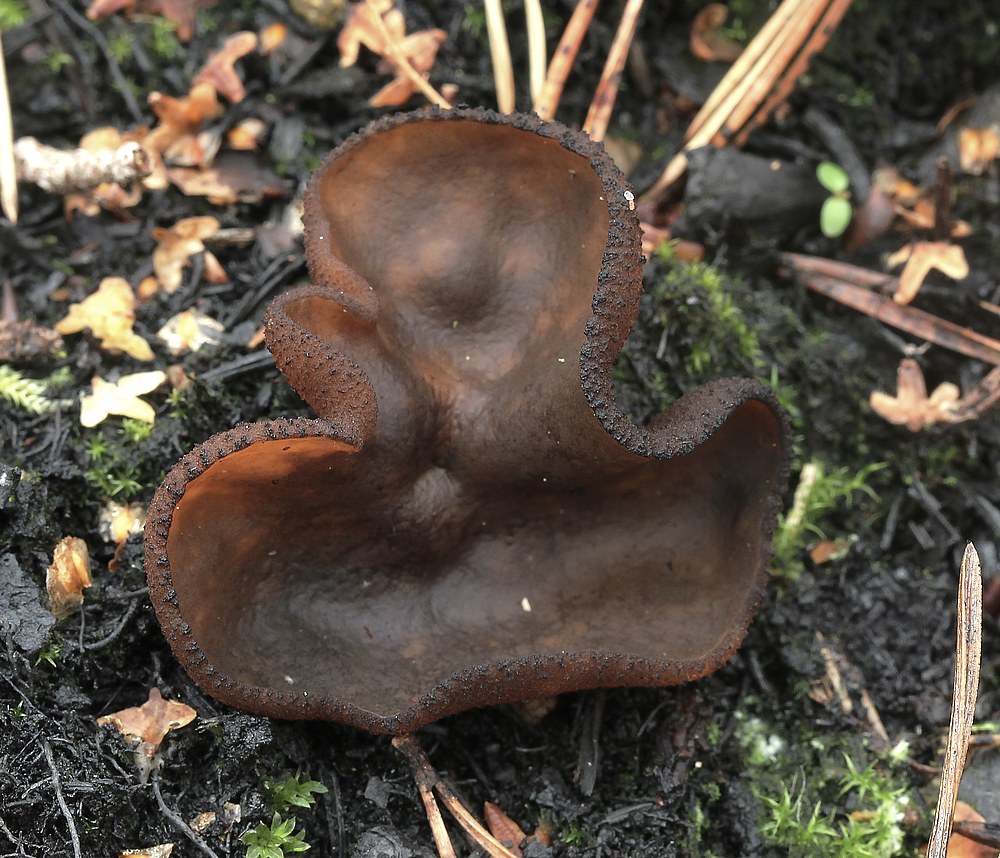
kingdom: Fungi
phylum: Ascomycota
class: Pezizomycetes
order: Pezizales
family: Pyronemataceae
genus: Plicaria
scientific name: Plicaria endocarpoides
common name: glatsporet bålbæger
